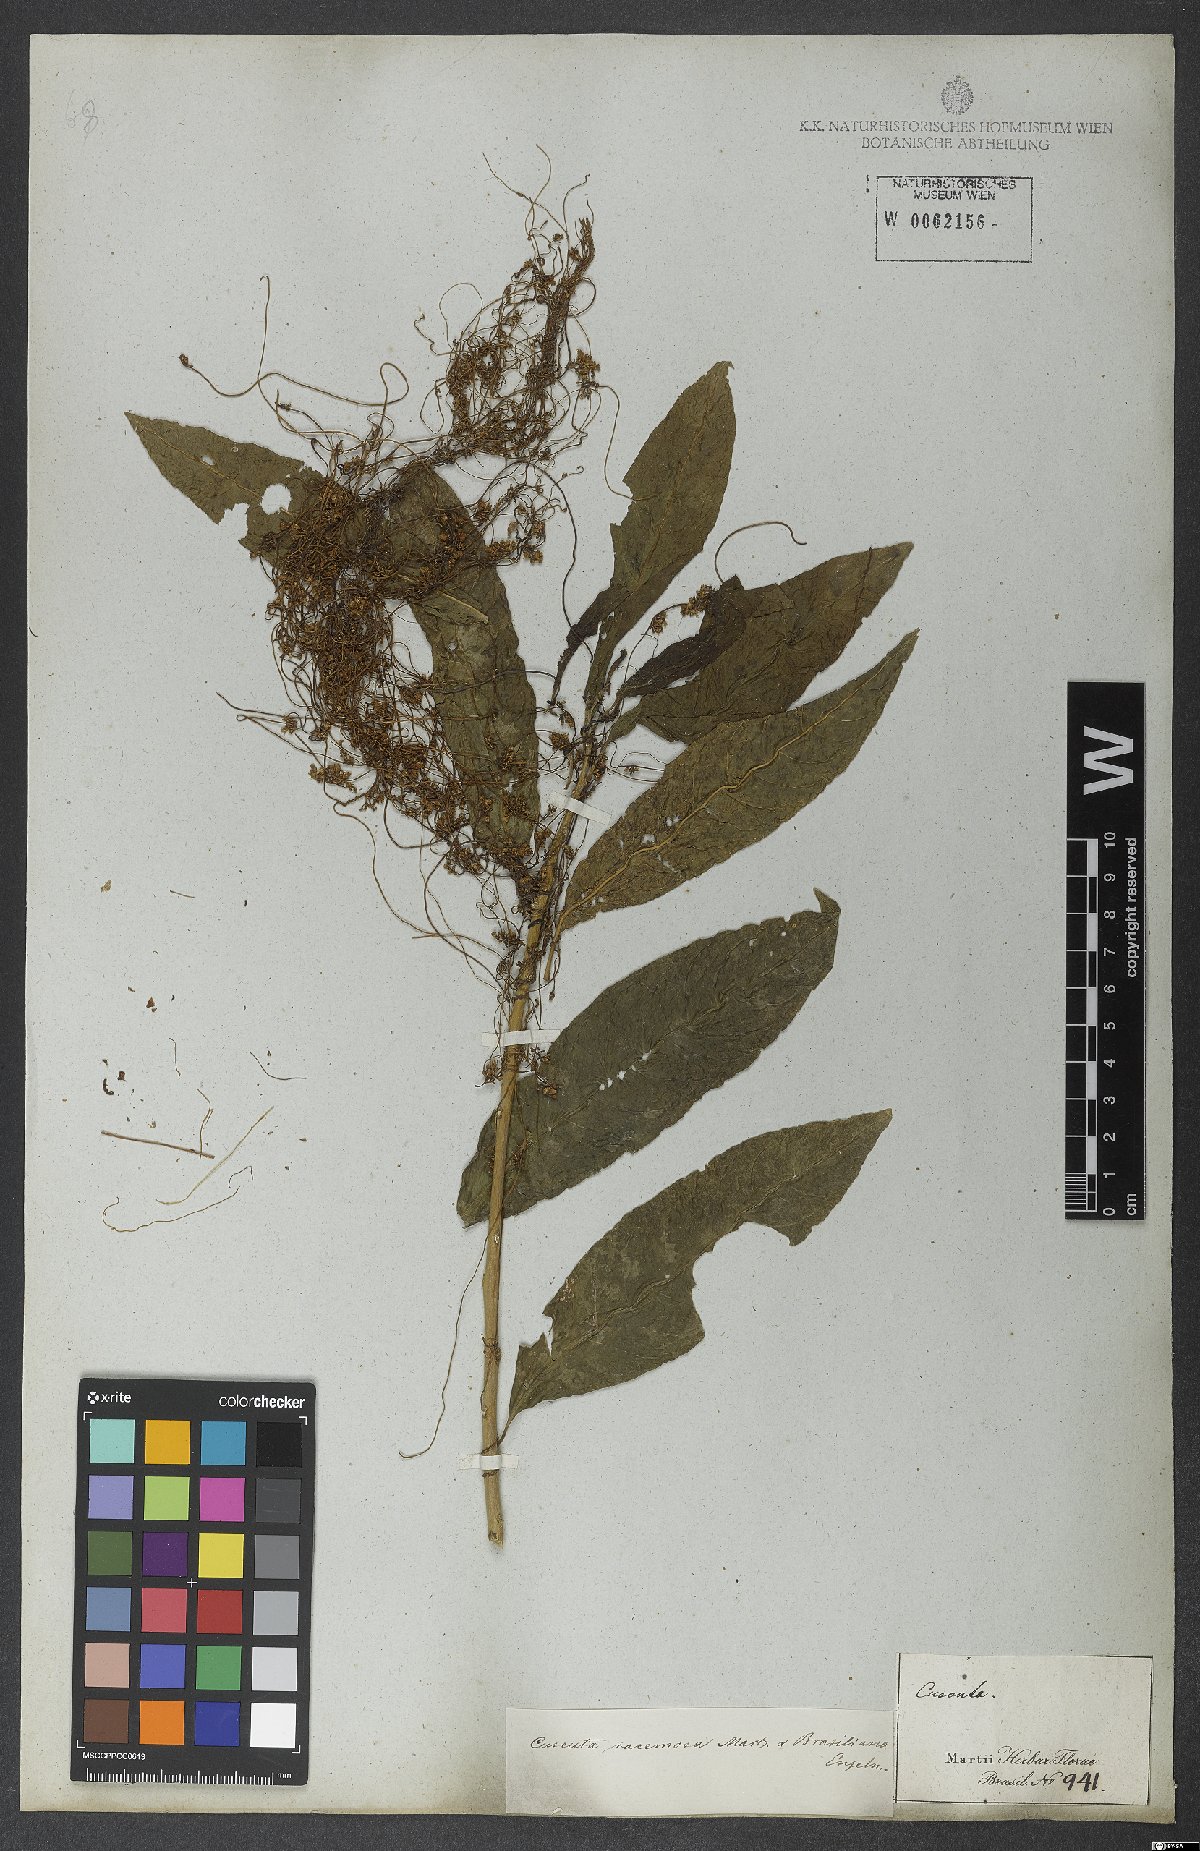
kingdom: Plantae
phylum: Tracheophyta
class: Magnoliopsida
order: Solanales
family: Convolvulaceae
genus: Cuscuta
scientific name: Cuscuta racemosa
